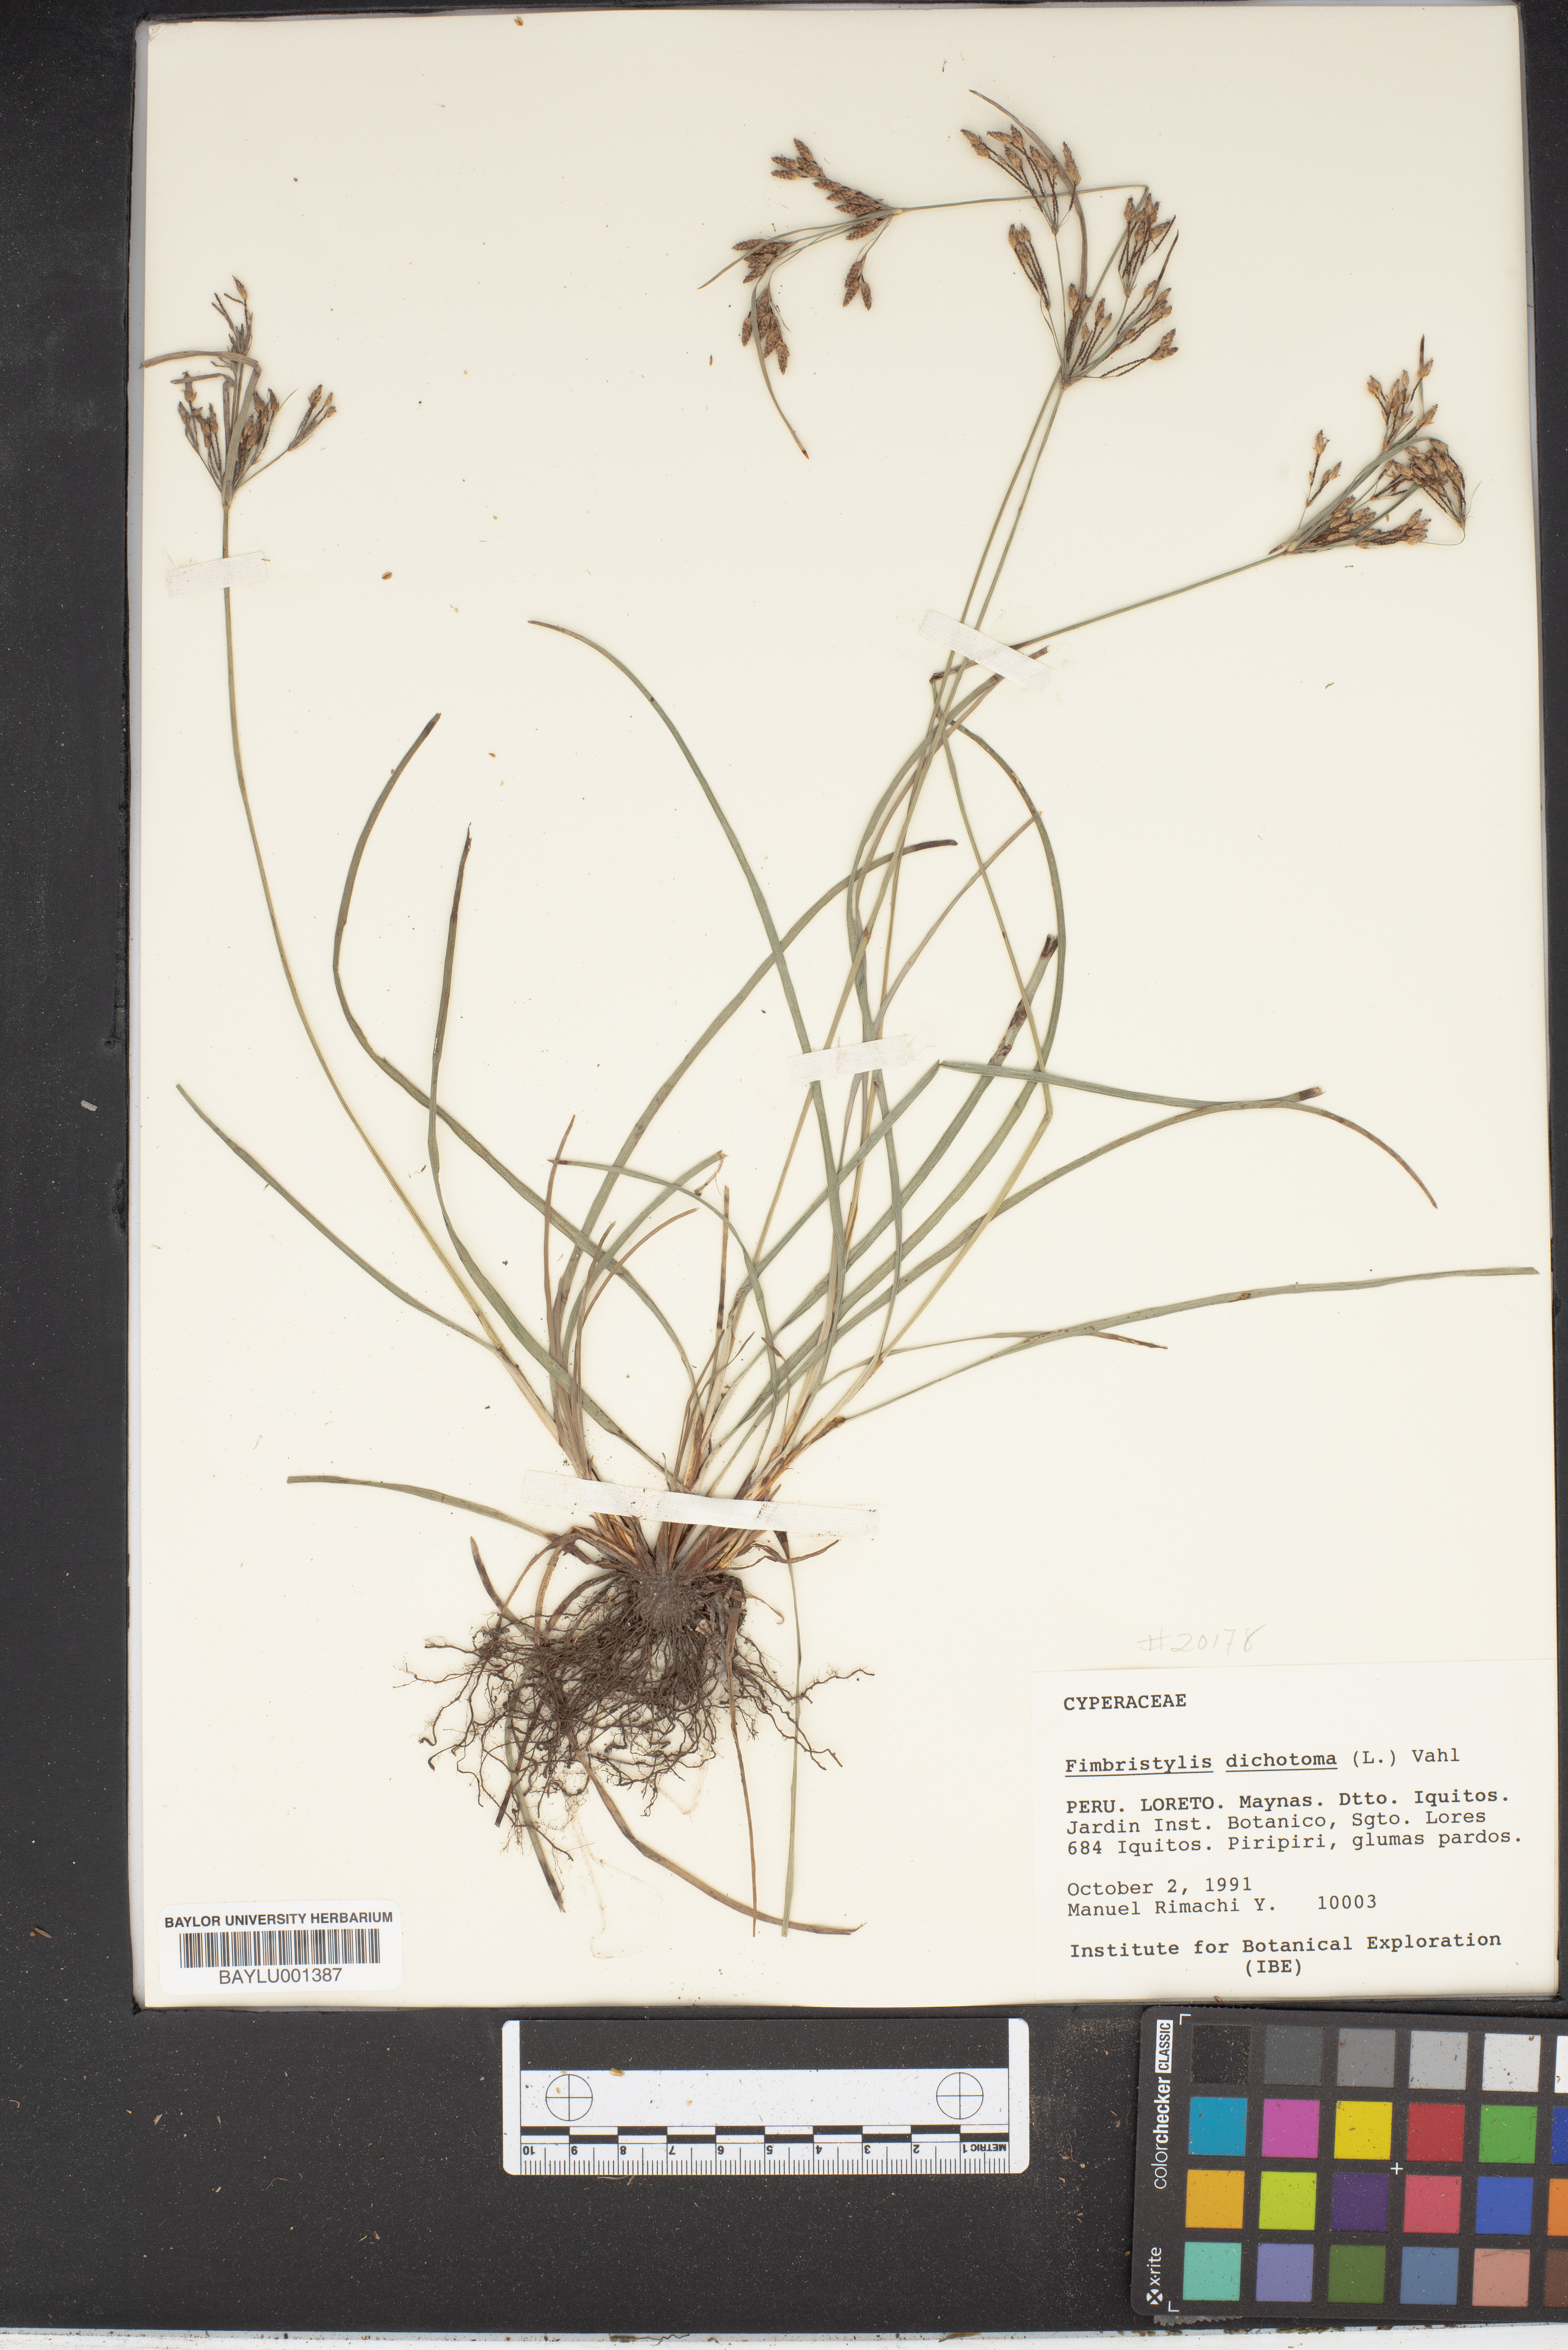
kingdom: Plantae
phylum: Tracheophyta
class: Liliopsida
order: Poales
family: Cyperaceae
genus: Fimbristylis
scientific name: Fimbristylis dichotoma
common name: Forked fimbry
